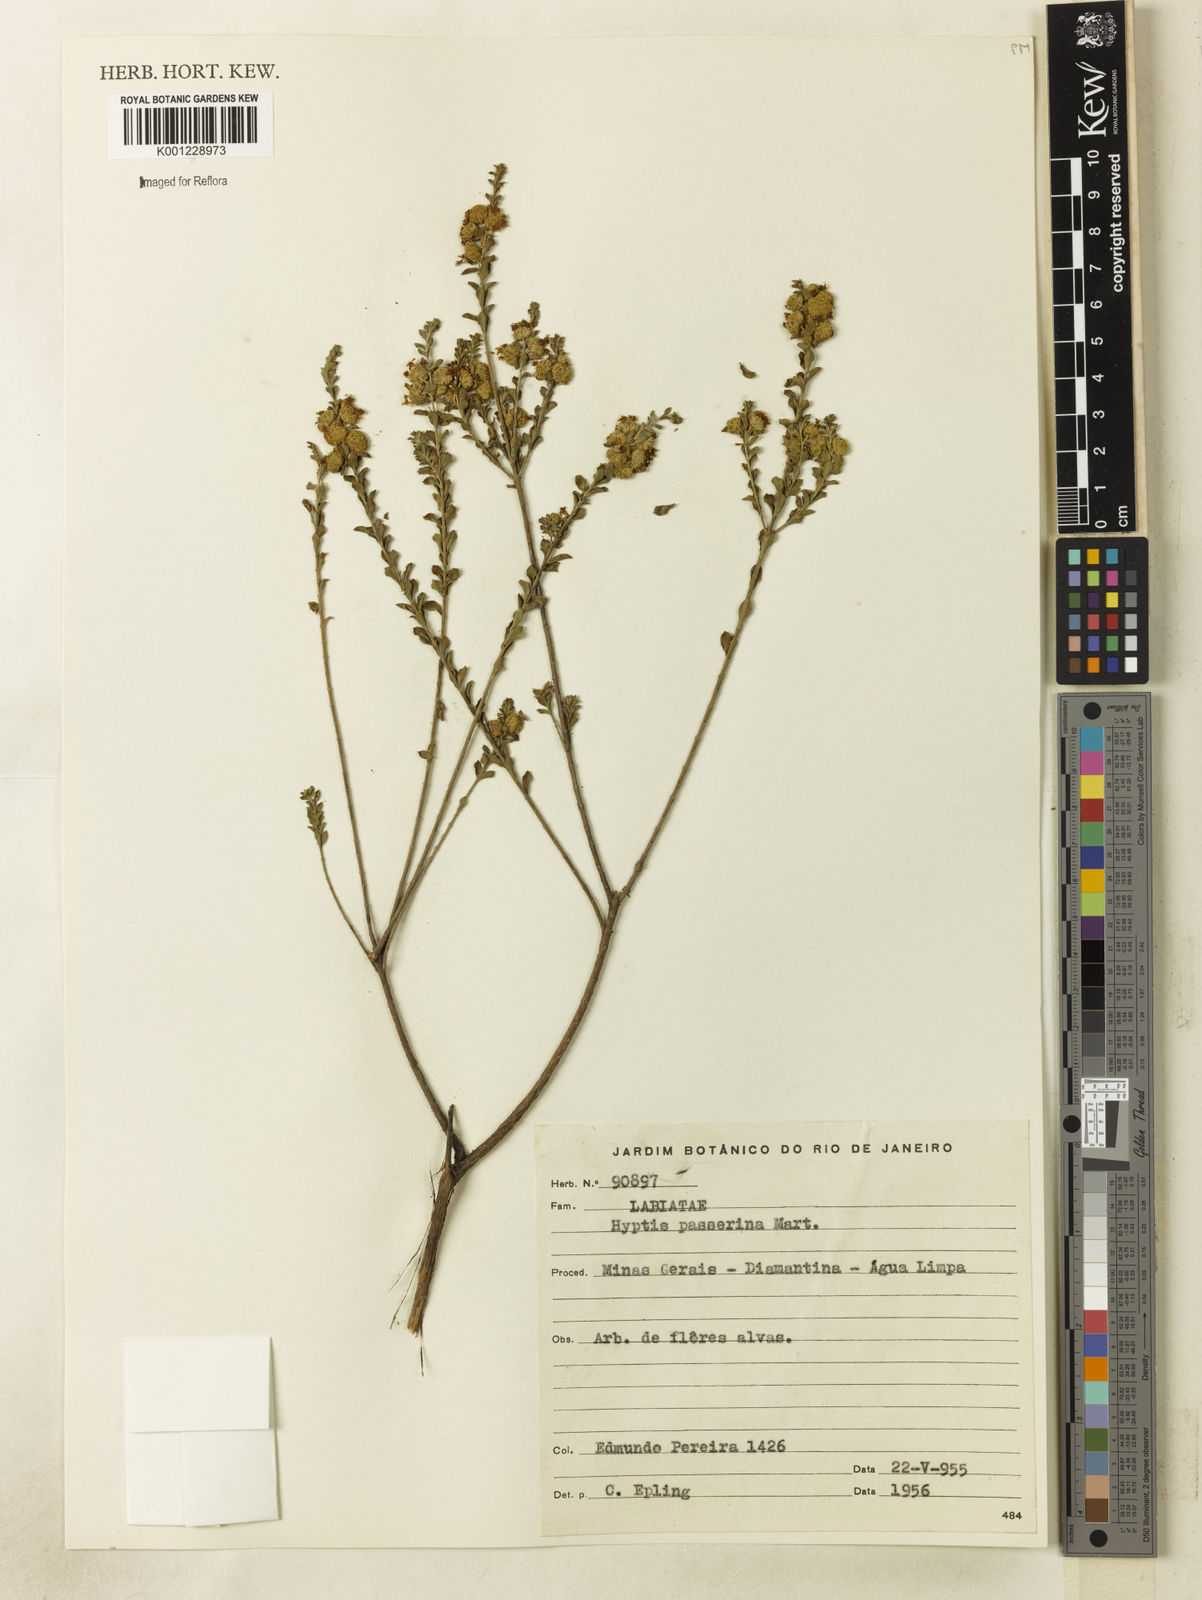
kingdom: Plantae
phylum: Tracheophyta
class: Magnoliopsida
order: Lamiales
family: Lamiaceae
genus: Hyptis
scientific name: Hyptis passerina
